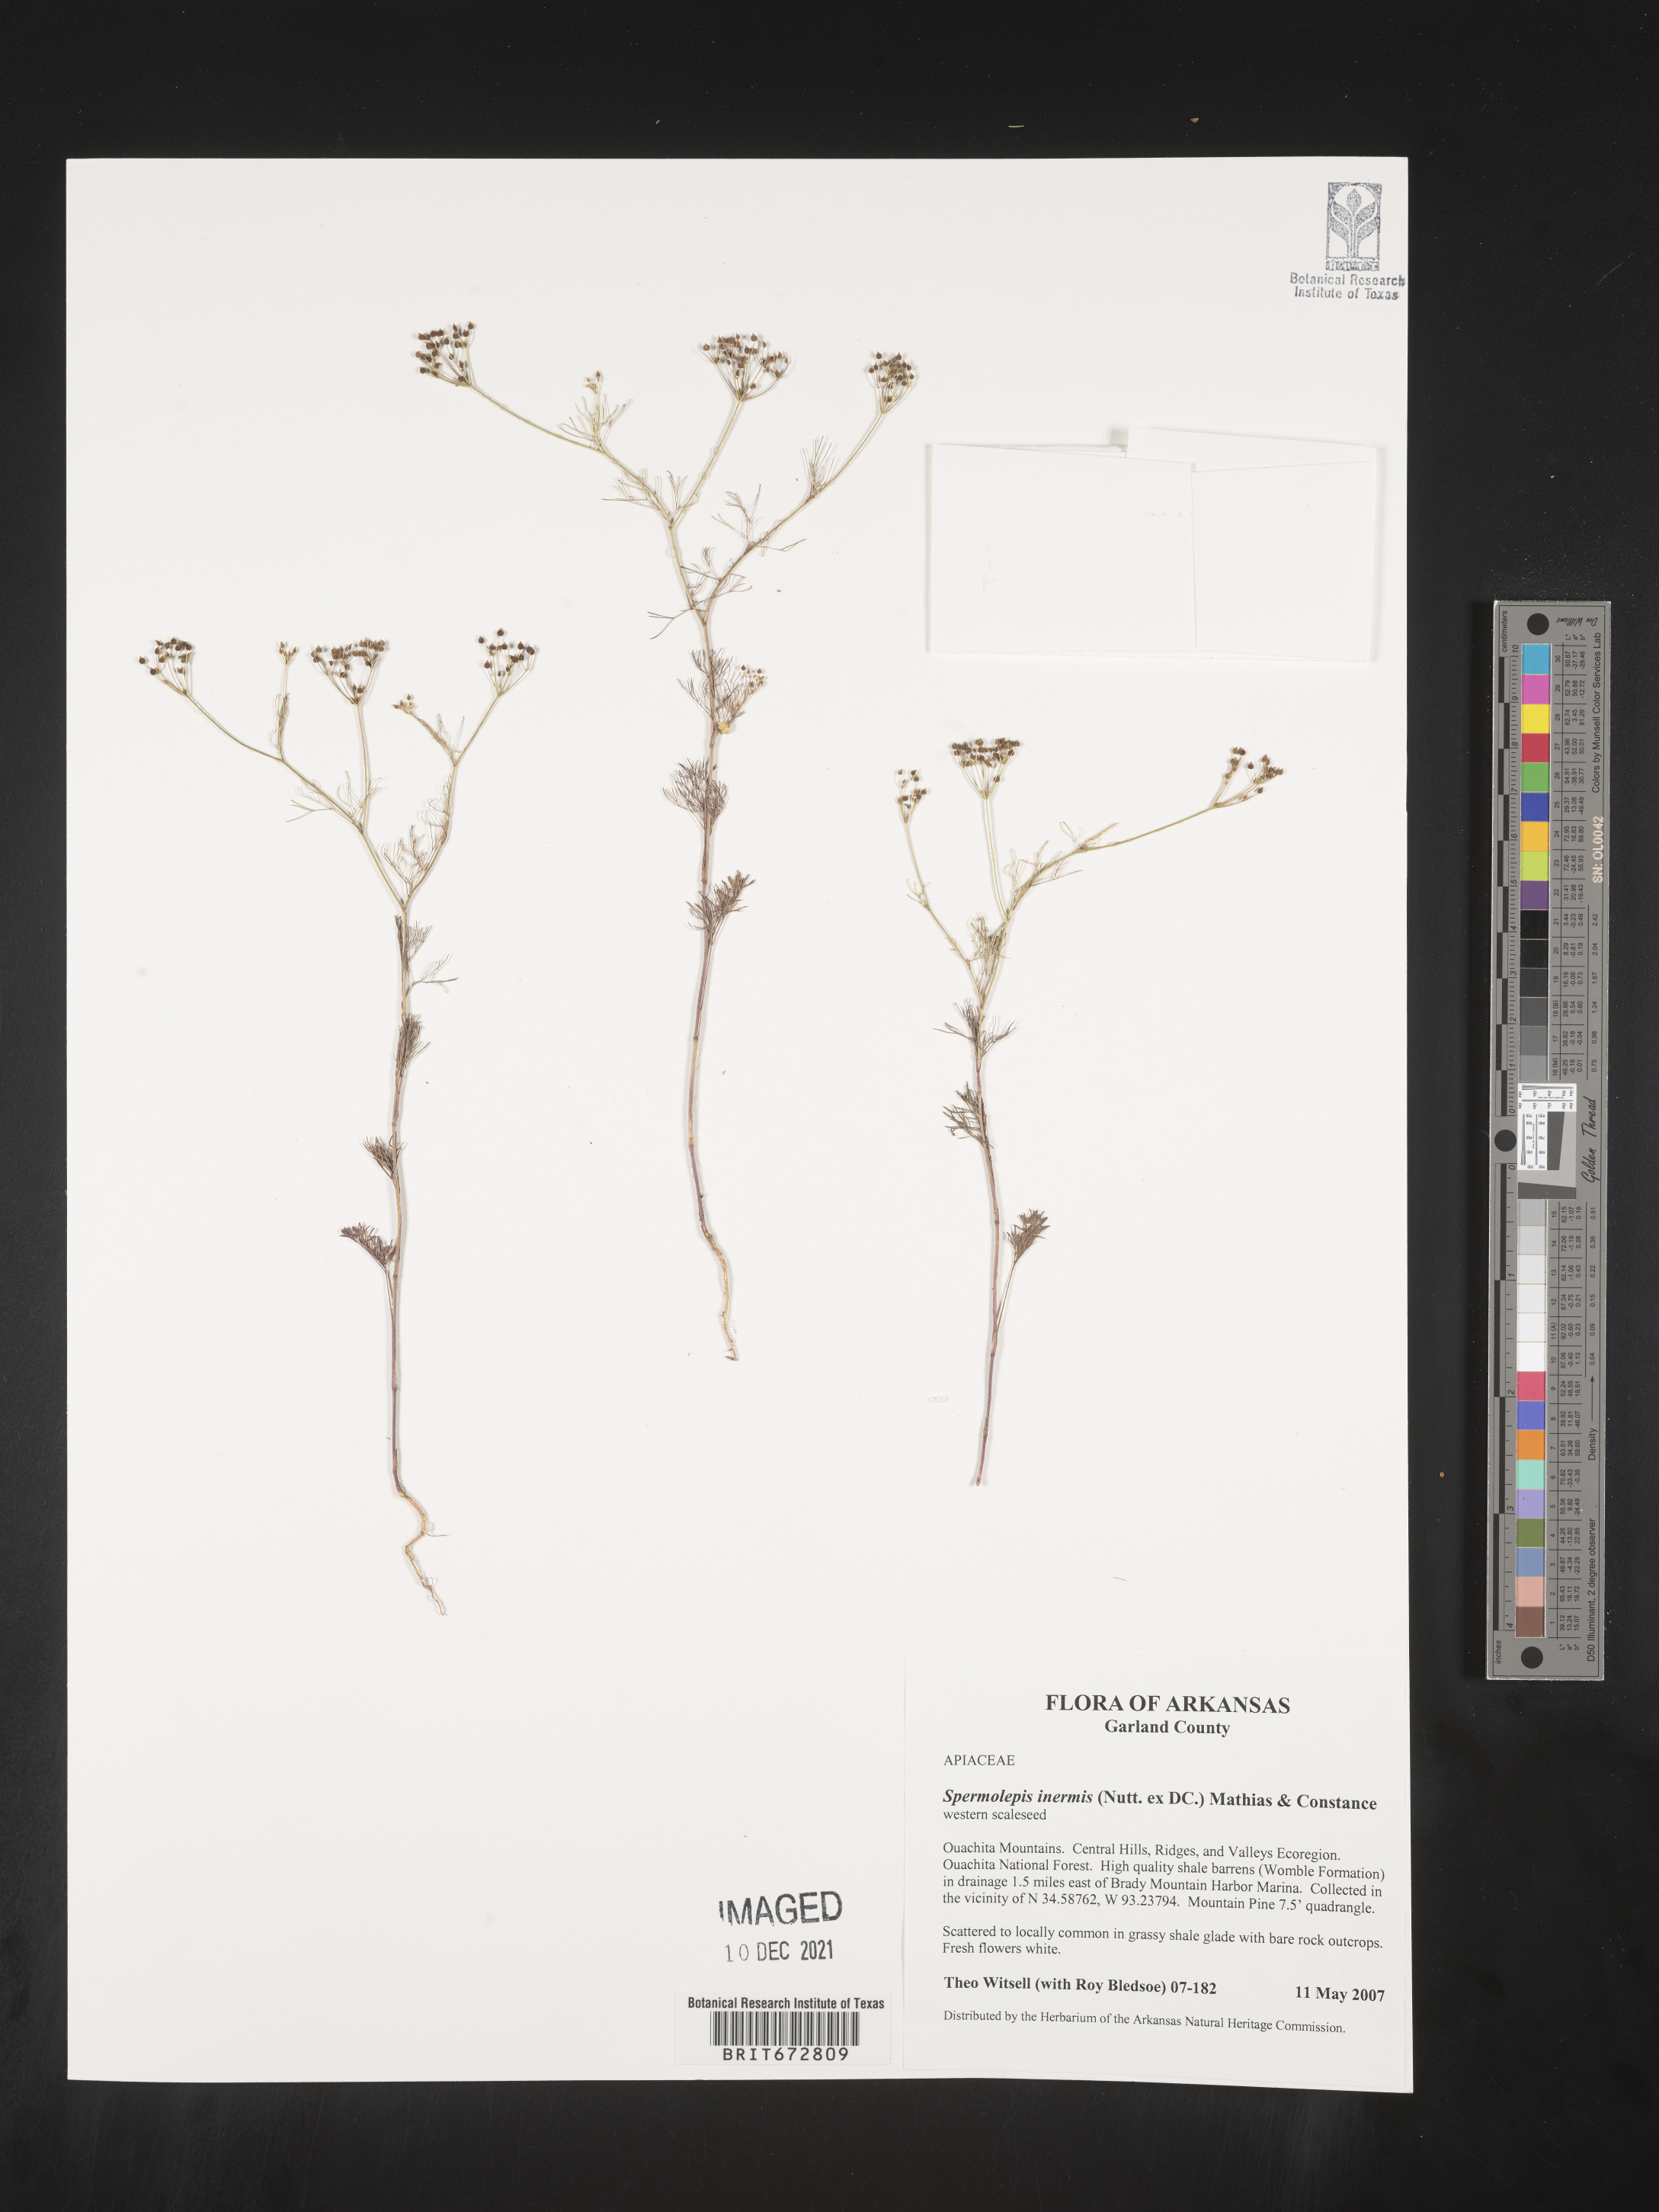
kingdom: Plantae
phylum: Tracheophyta
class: Magnoliopsida
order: Apiales
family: Apiaceae
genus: Spermolepis
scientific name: Spermolepis inermis
